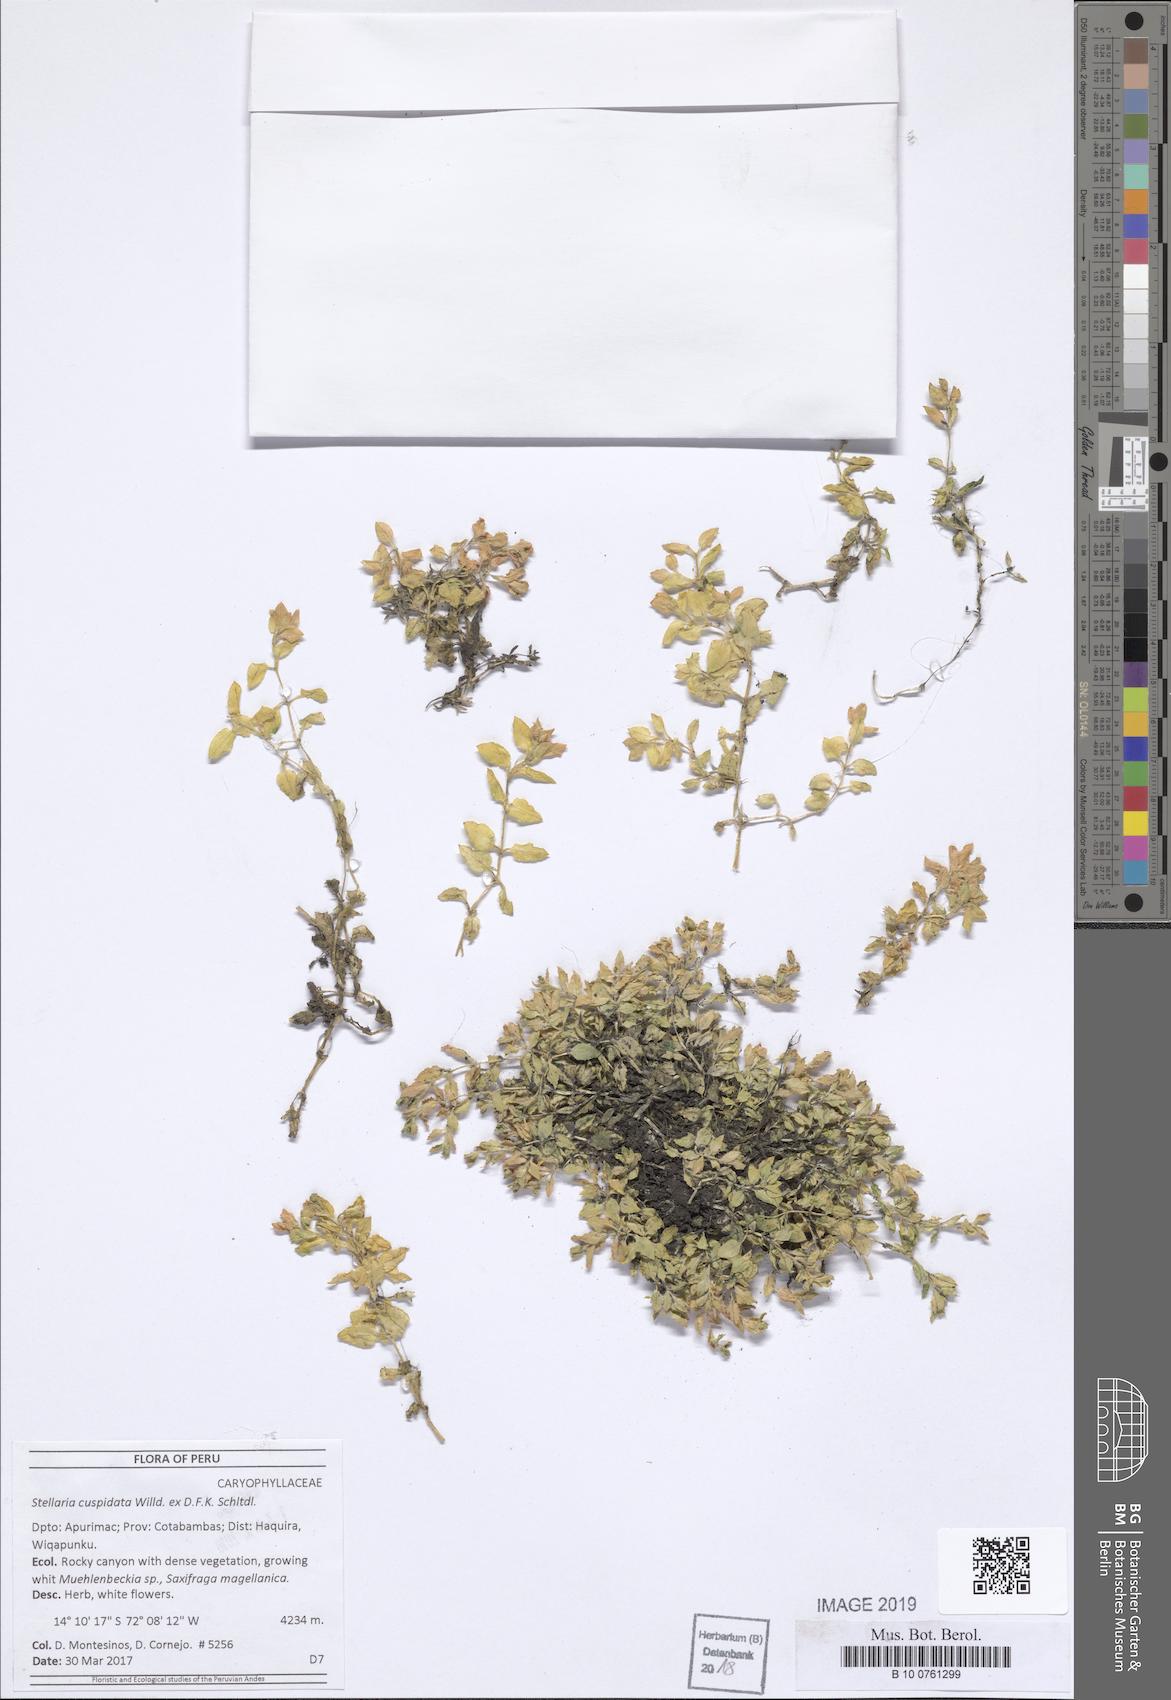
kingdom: Plantae
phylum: Tracheophyta
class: Magnoliopsida
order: Caryophyllales
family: Caryophyllaceae
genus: Stellaria
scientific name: Stellaria cuspidata
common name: Mexican chickweed
